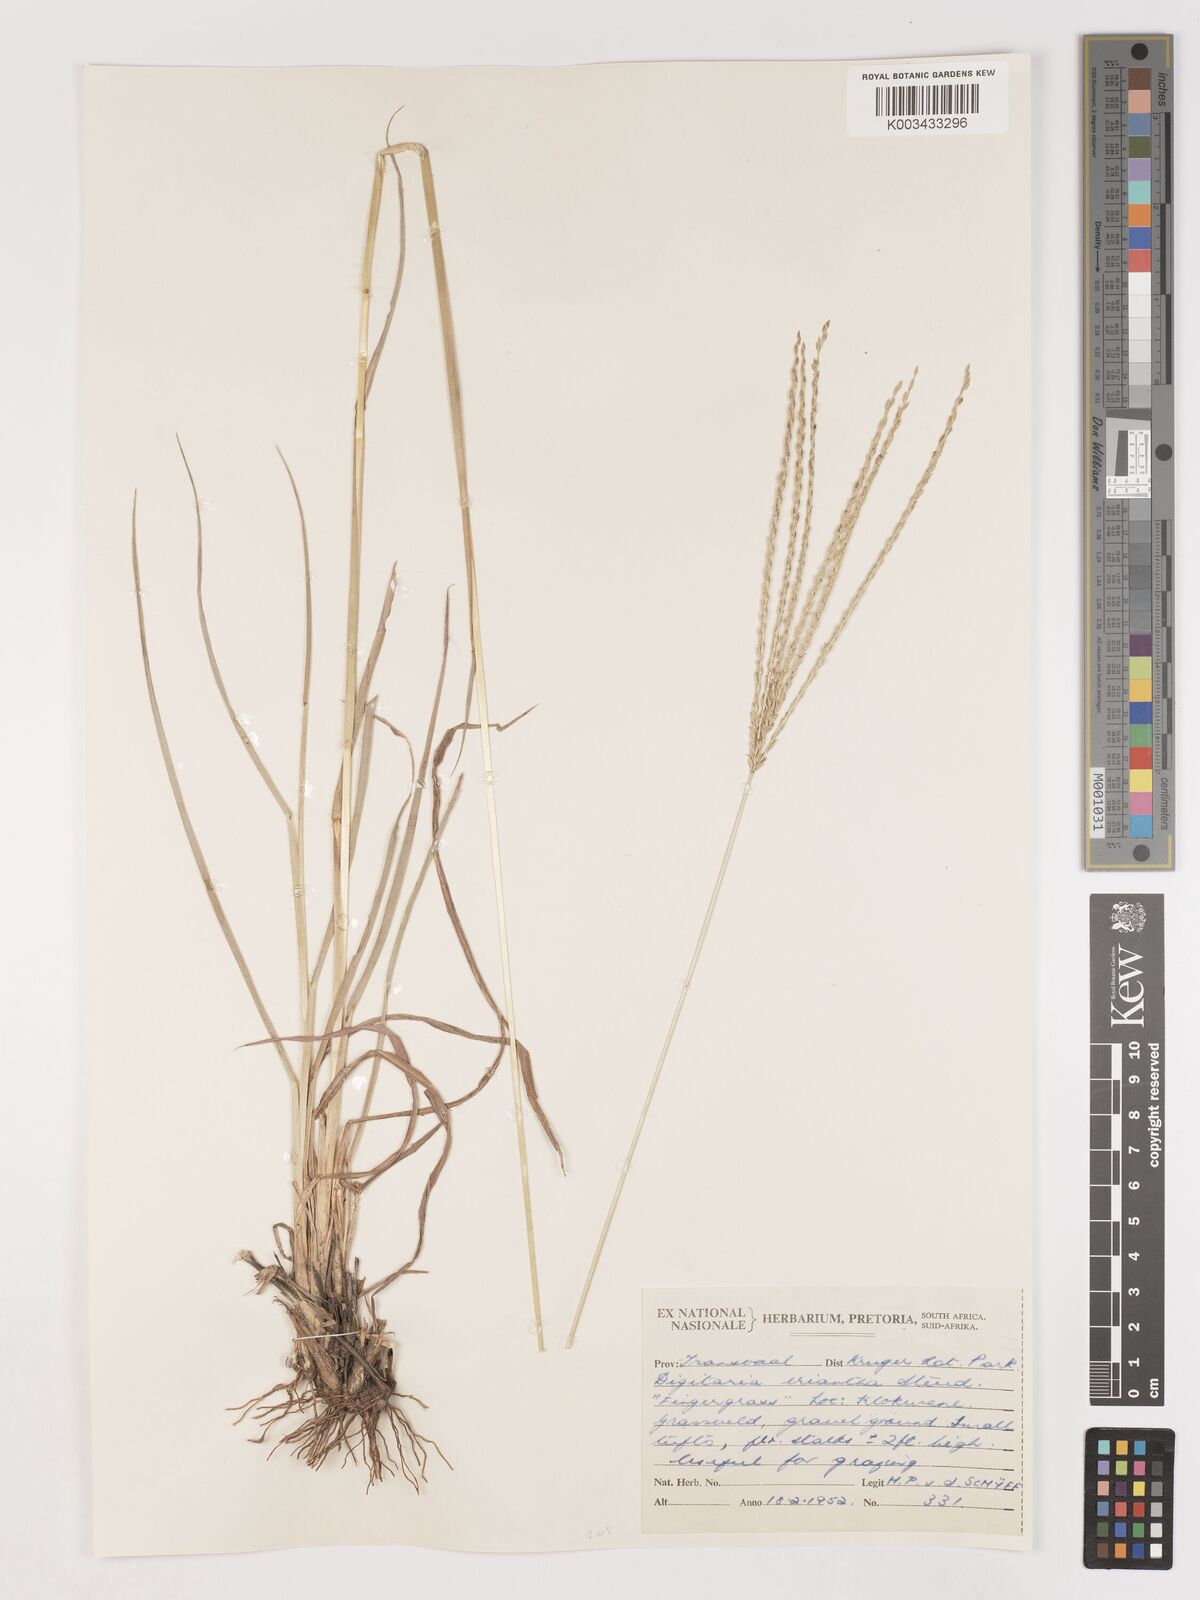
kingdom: Plantae
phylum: Tracheophyta
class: Liliopsida
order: Poales
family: Poaceae
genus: Digitaria
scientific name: Digitaria eriantha
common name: Digitgrass
